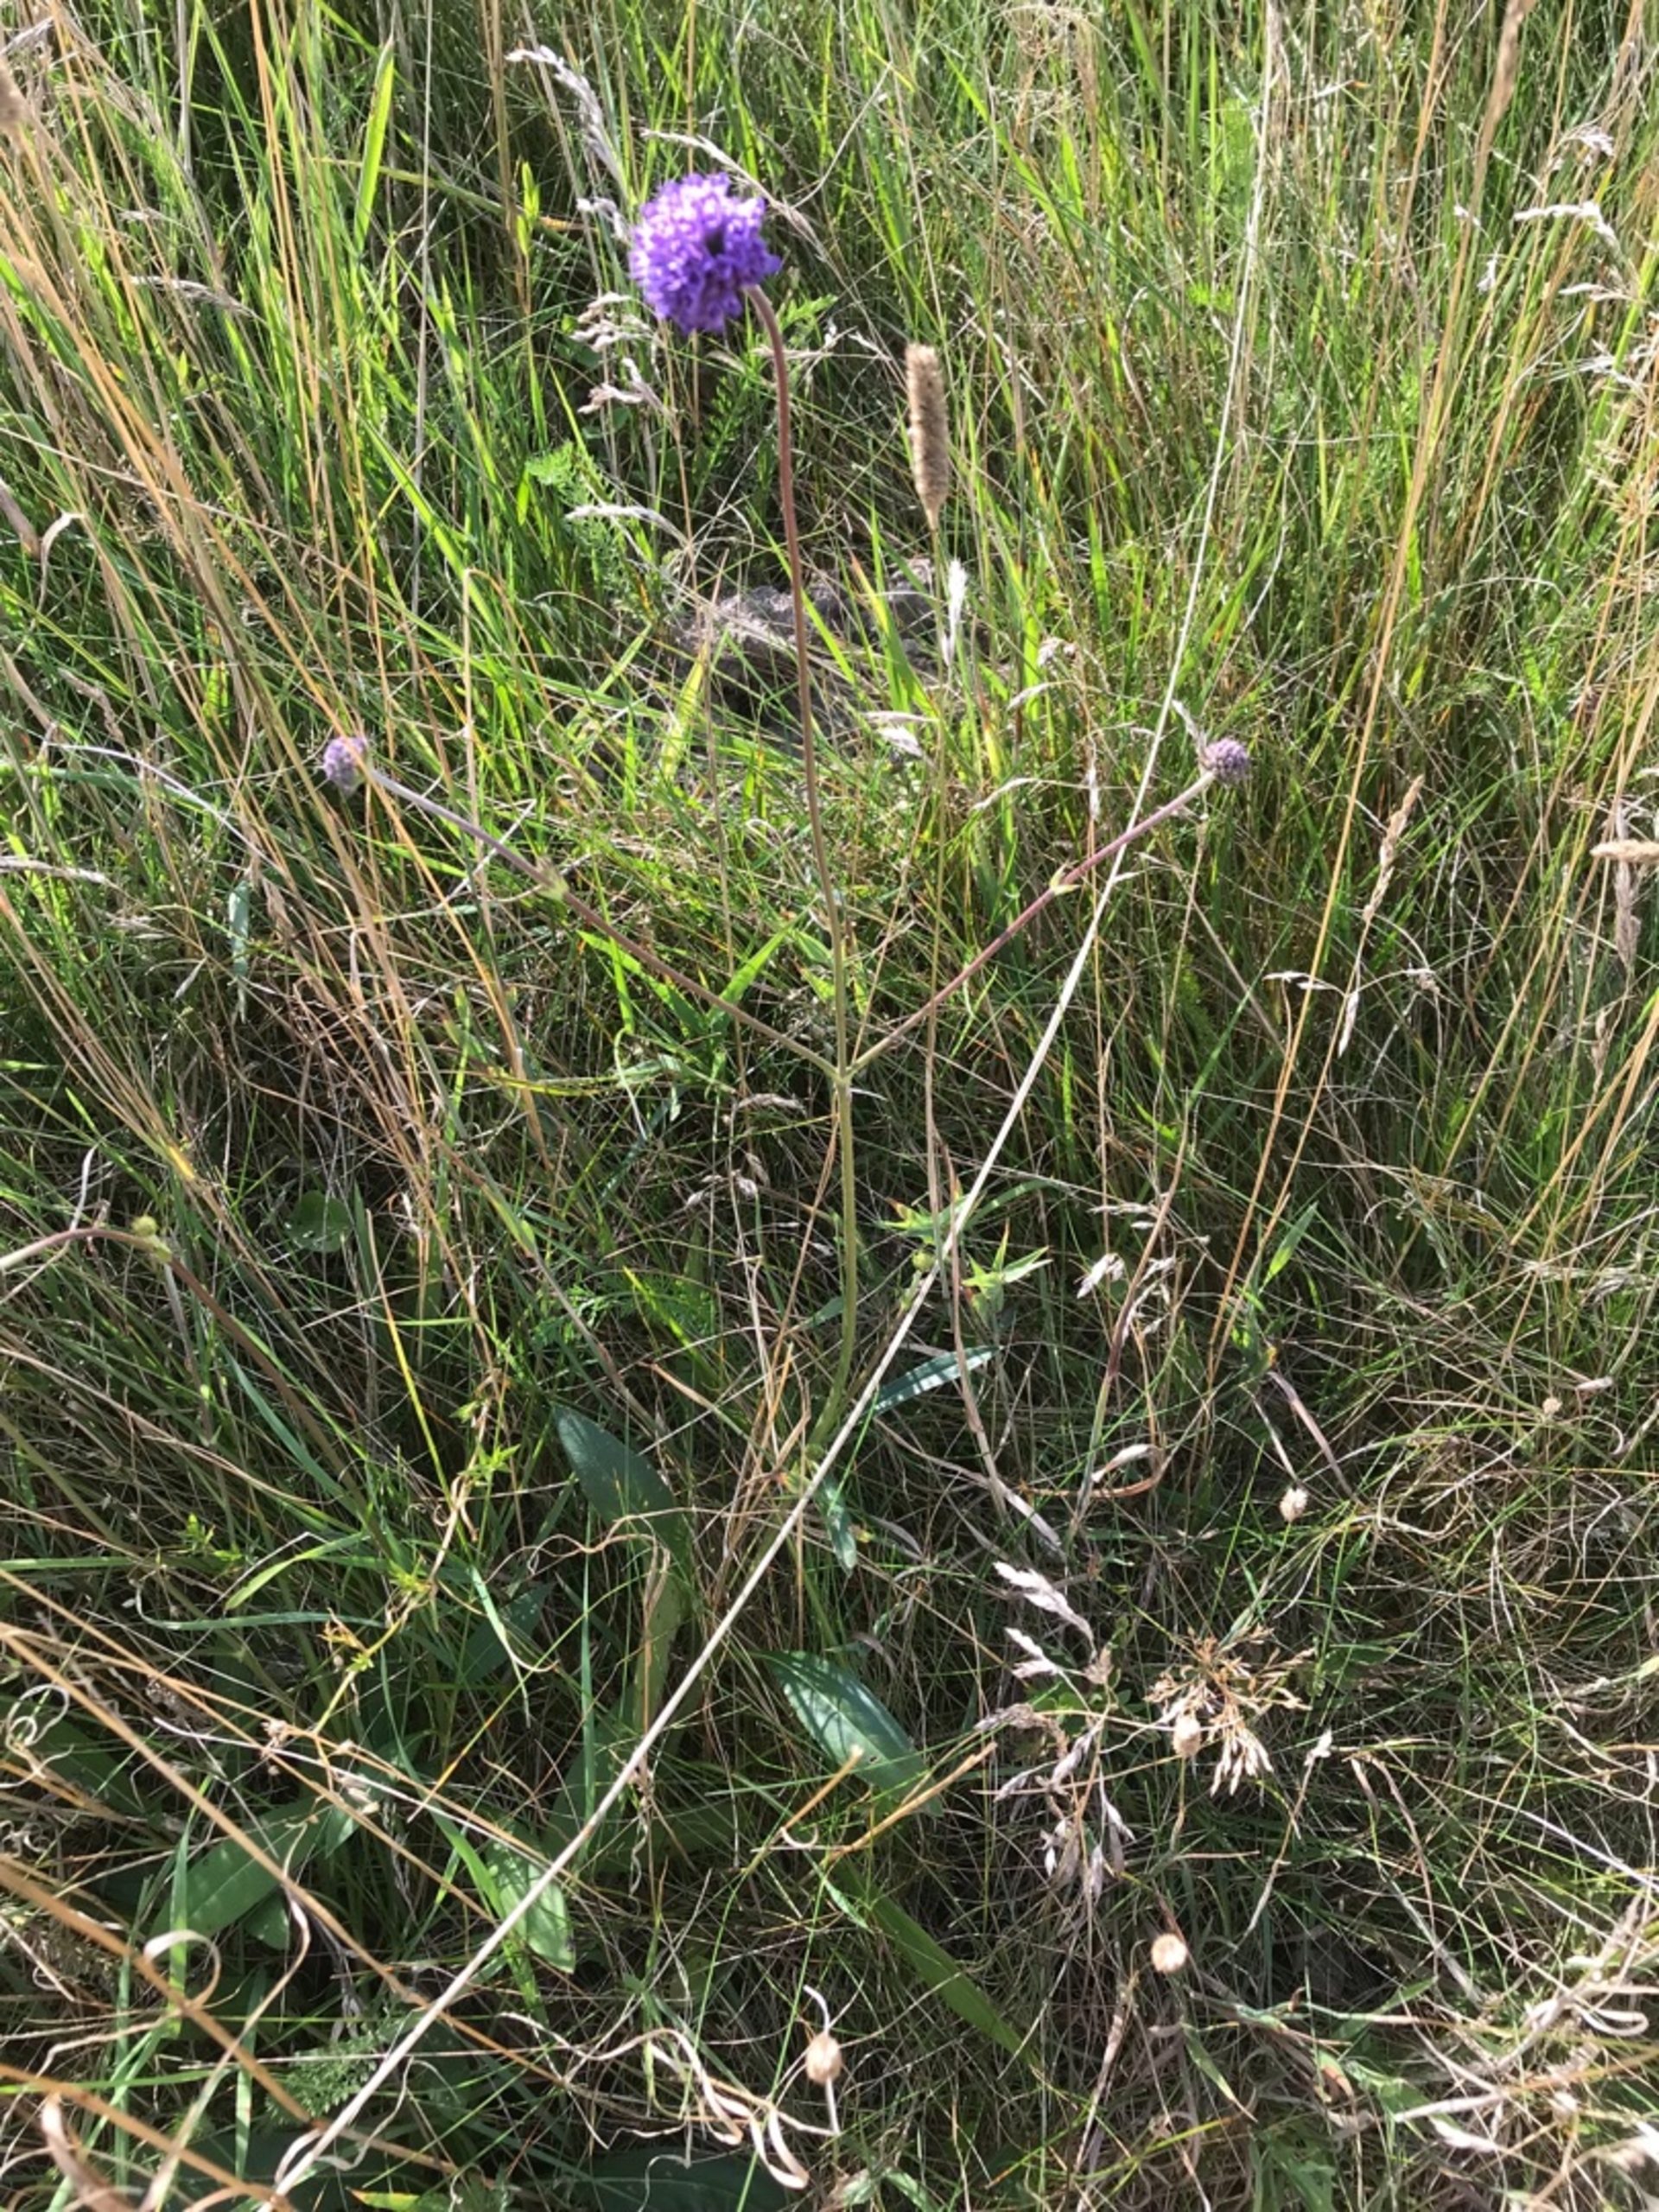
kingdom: Plantae
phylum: Tracheophyta
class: Magnoliopsida
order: Dipsacales
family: Caprifoliaceae
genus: Succisa
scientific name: Succisa pratensis
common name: Djævelsbid
